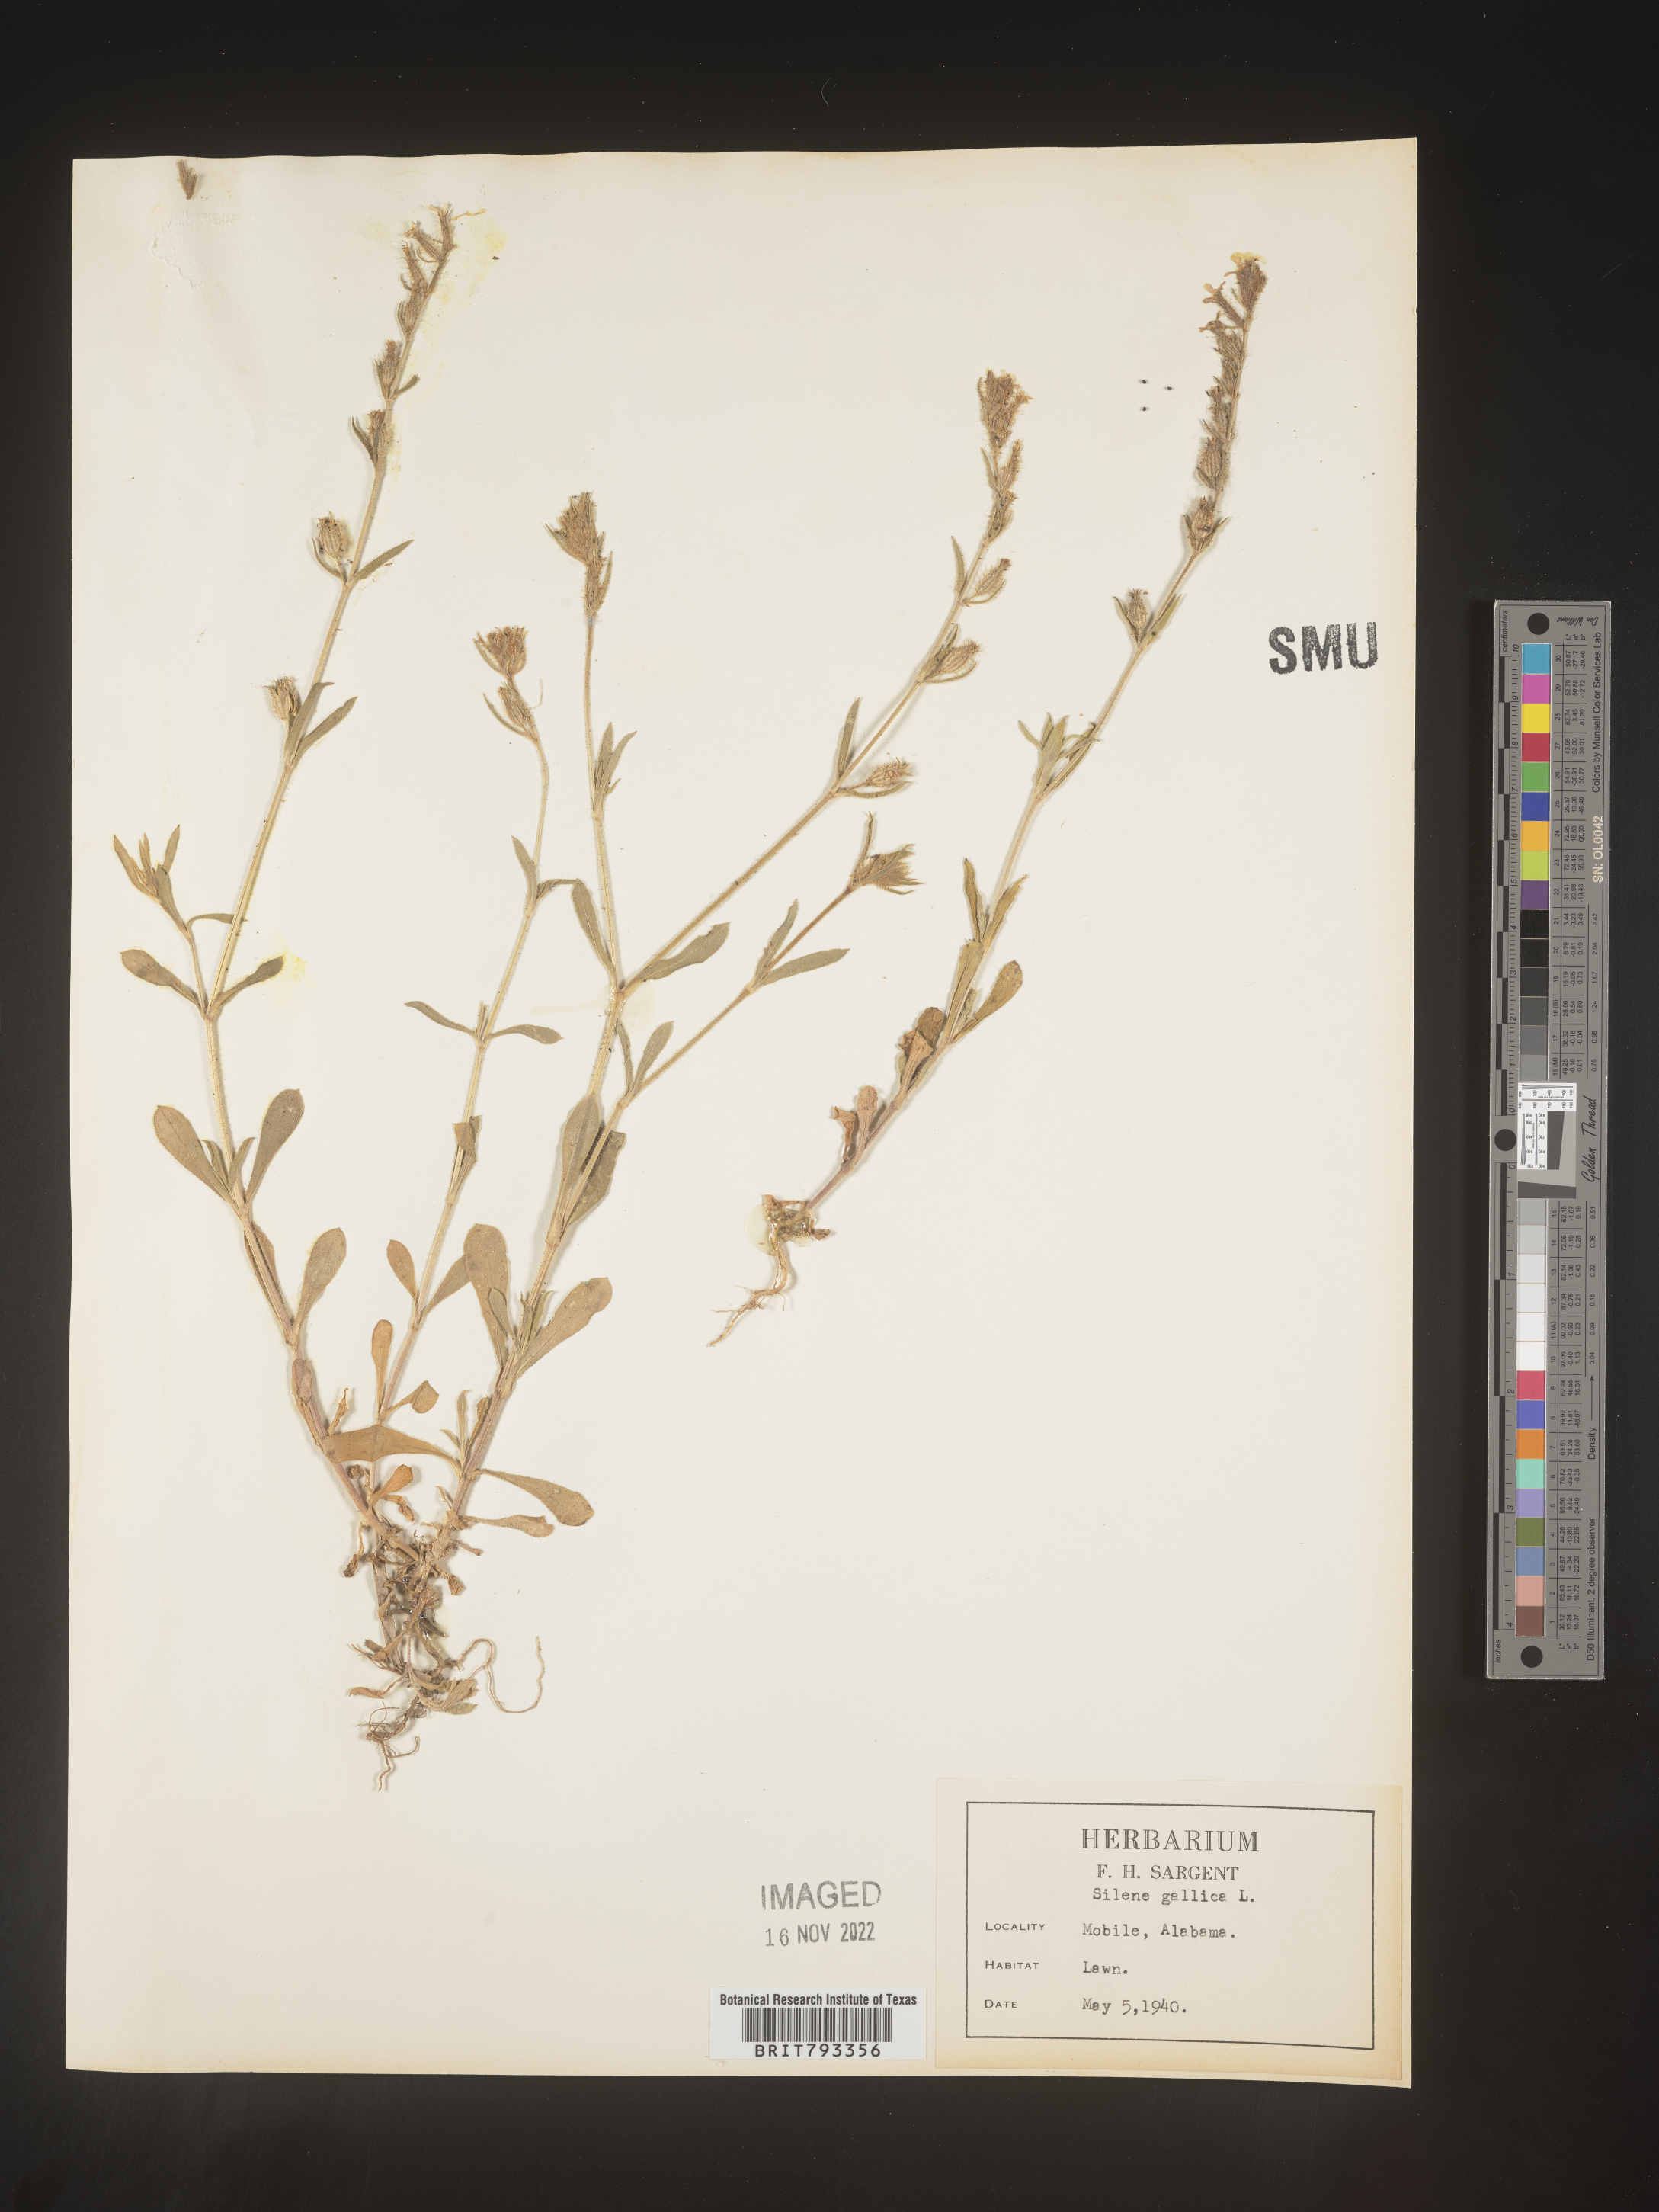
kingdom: Plantae
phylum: Tracheophyta
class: Magnoliopsida
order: Caryophyllales
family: Caryophyllaceae
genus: Silene
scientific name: Silene gallica
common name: Small-flowered catchfly
